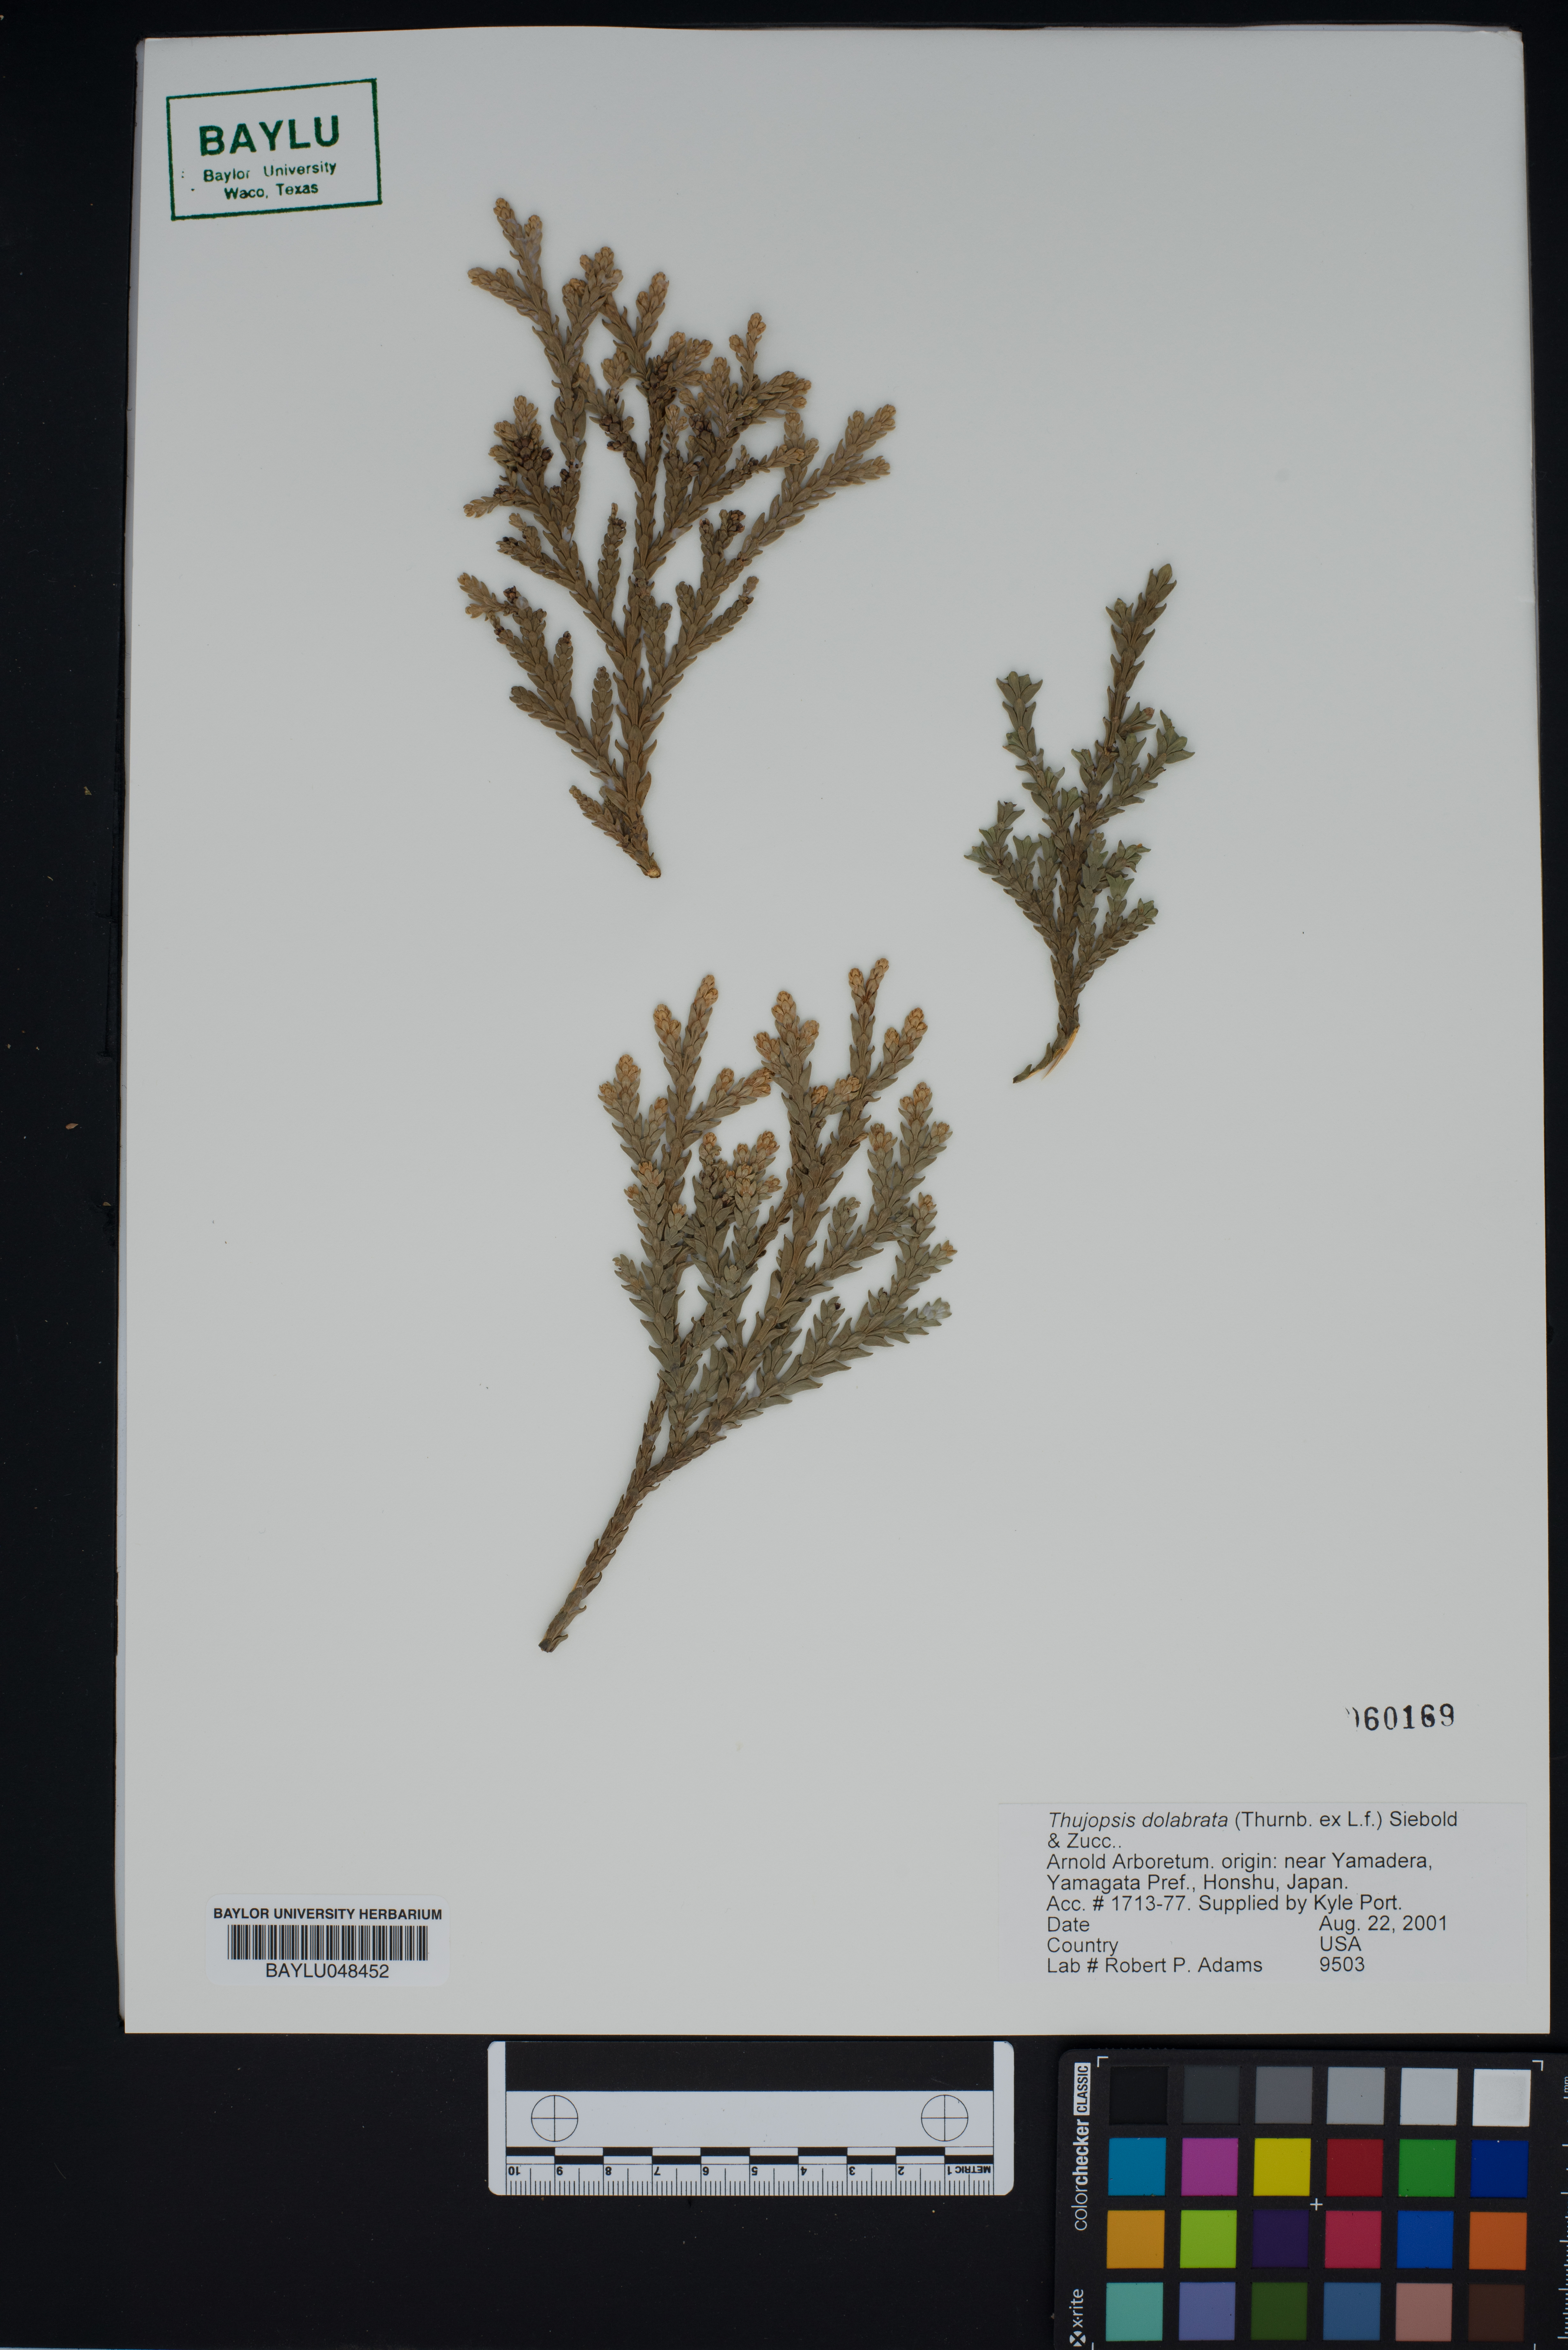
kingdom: Plantae
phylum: Tracheophyta
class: Pinopsida
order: Pinales
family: Cupressaceae
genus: Thujopsis
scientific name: Thujopsis dolabrata
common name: Hiba
